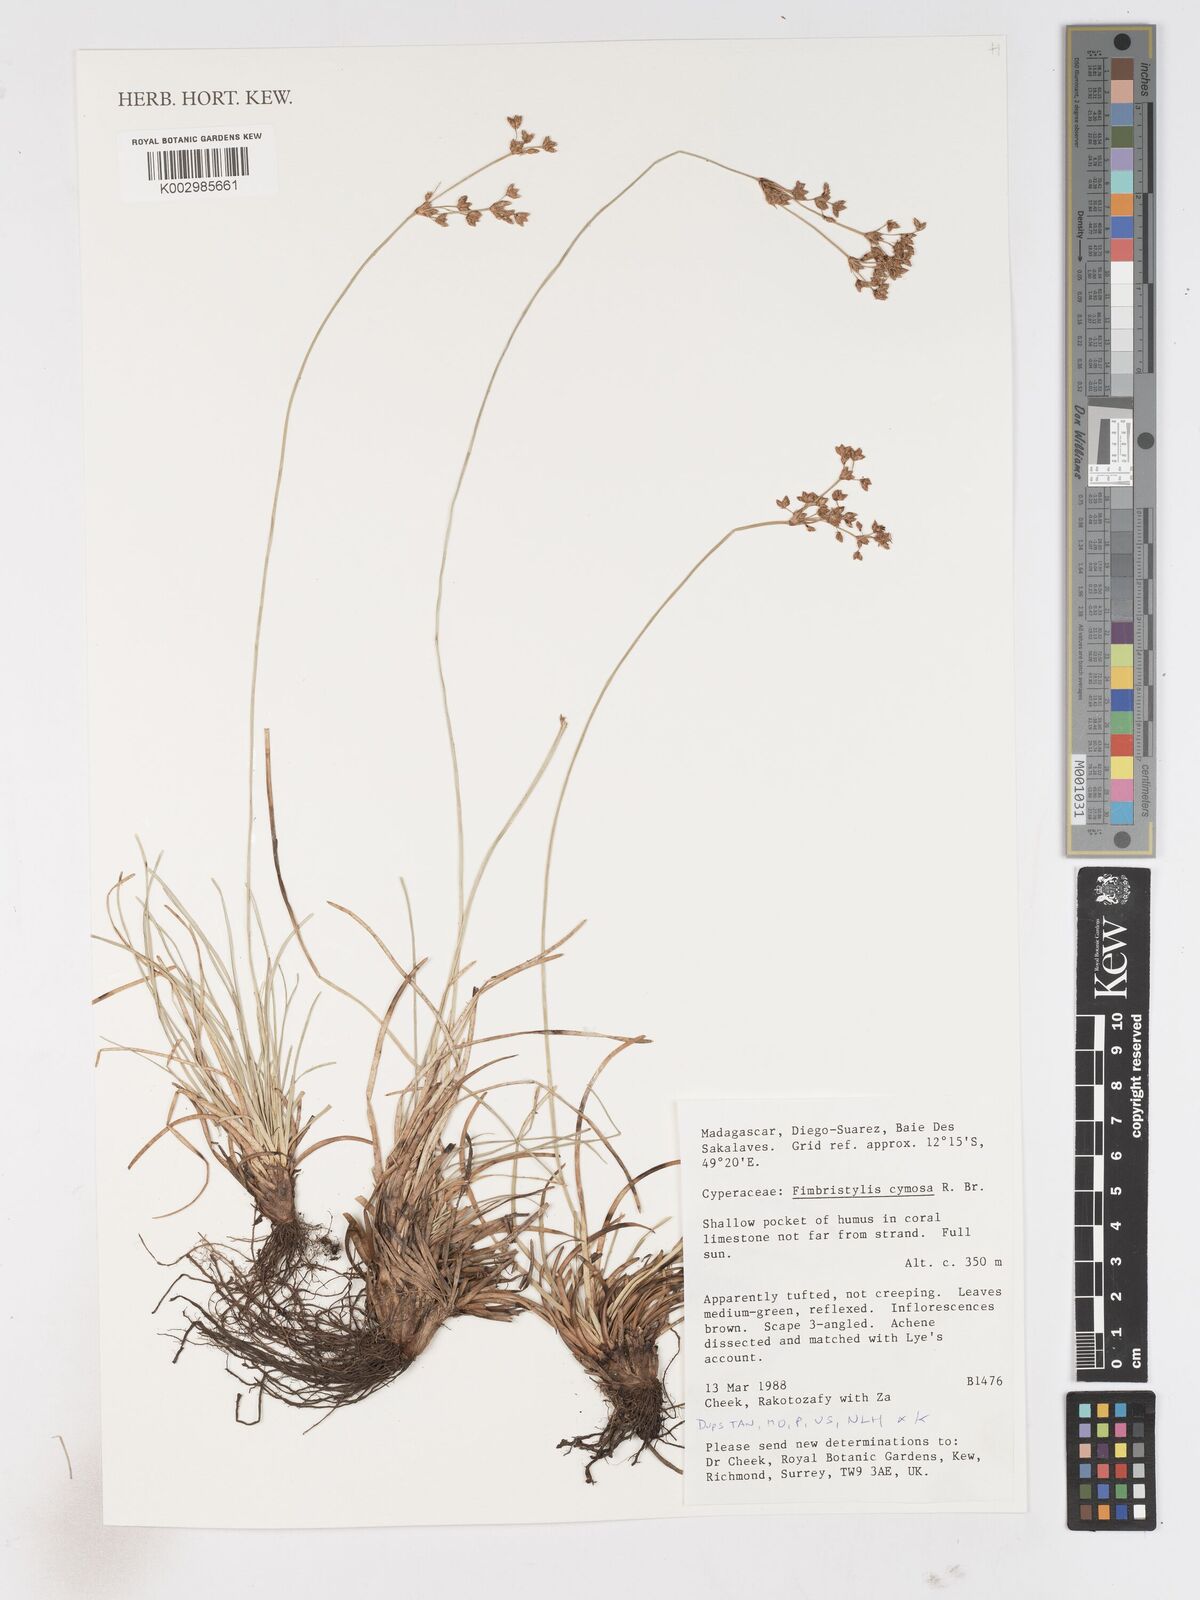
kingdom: Plantae
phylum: Tracheophyta
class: Liliopsida
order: Poales
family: Cyperaceae
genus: Fimbristylis
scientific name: Fimbristylis cymosa
